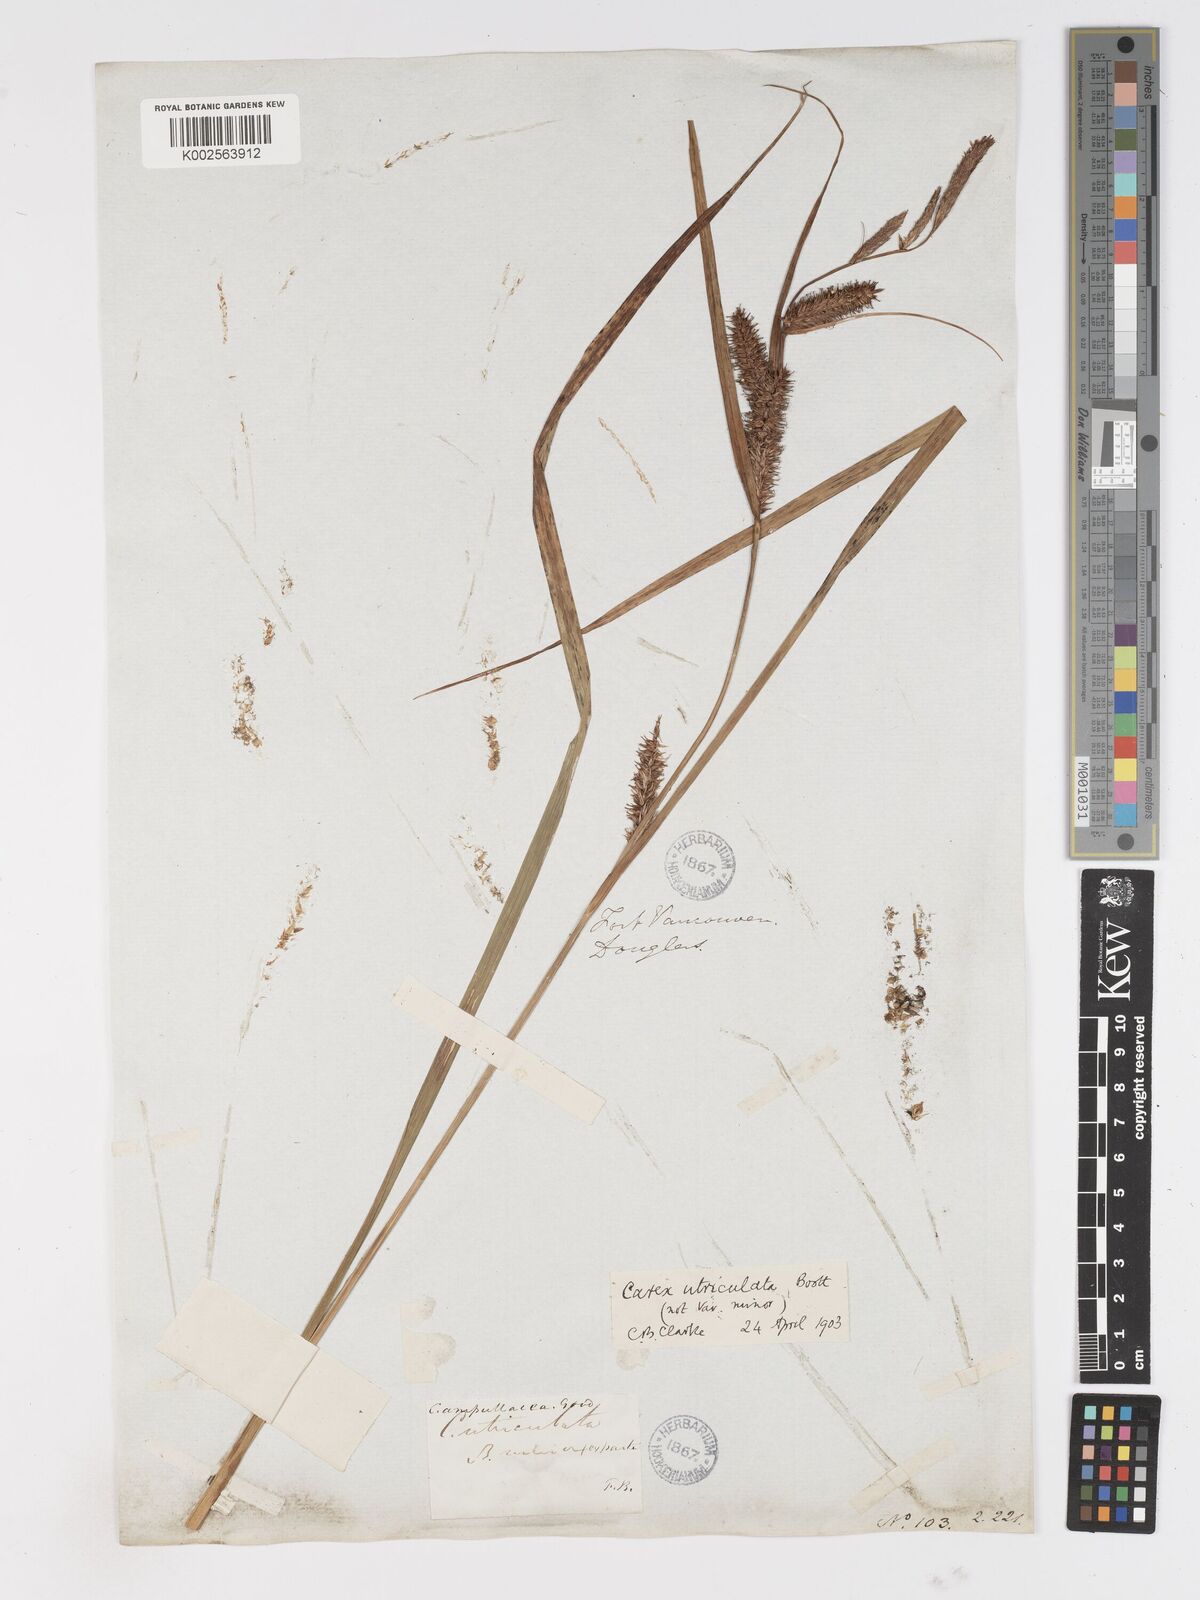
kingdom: Plantae
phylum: Tracheophyta
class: Liliopsida
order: Poales
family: Cyperaceae
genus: Carex
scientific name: Carex rostrata
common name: Bottle sedge
